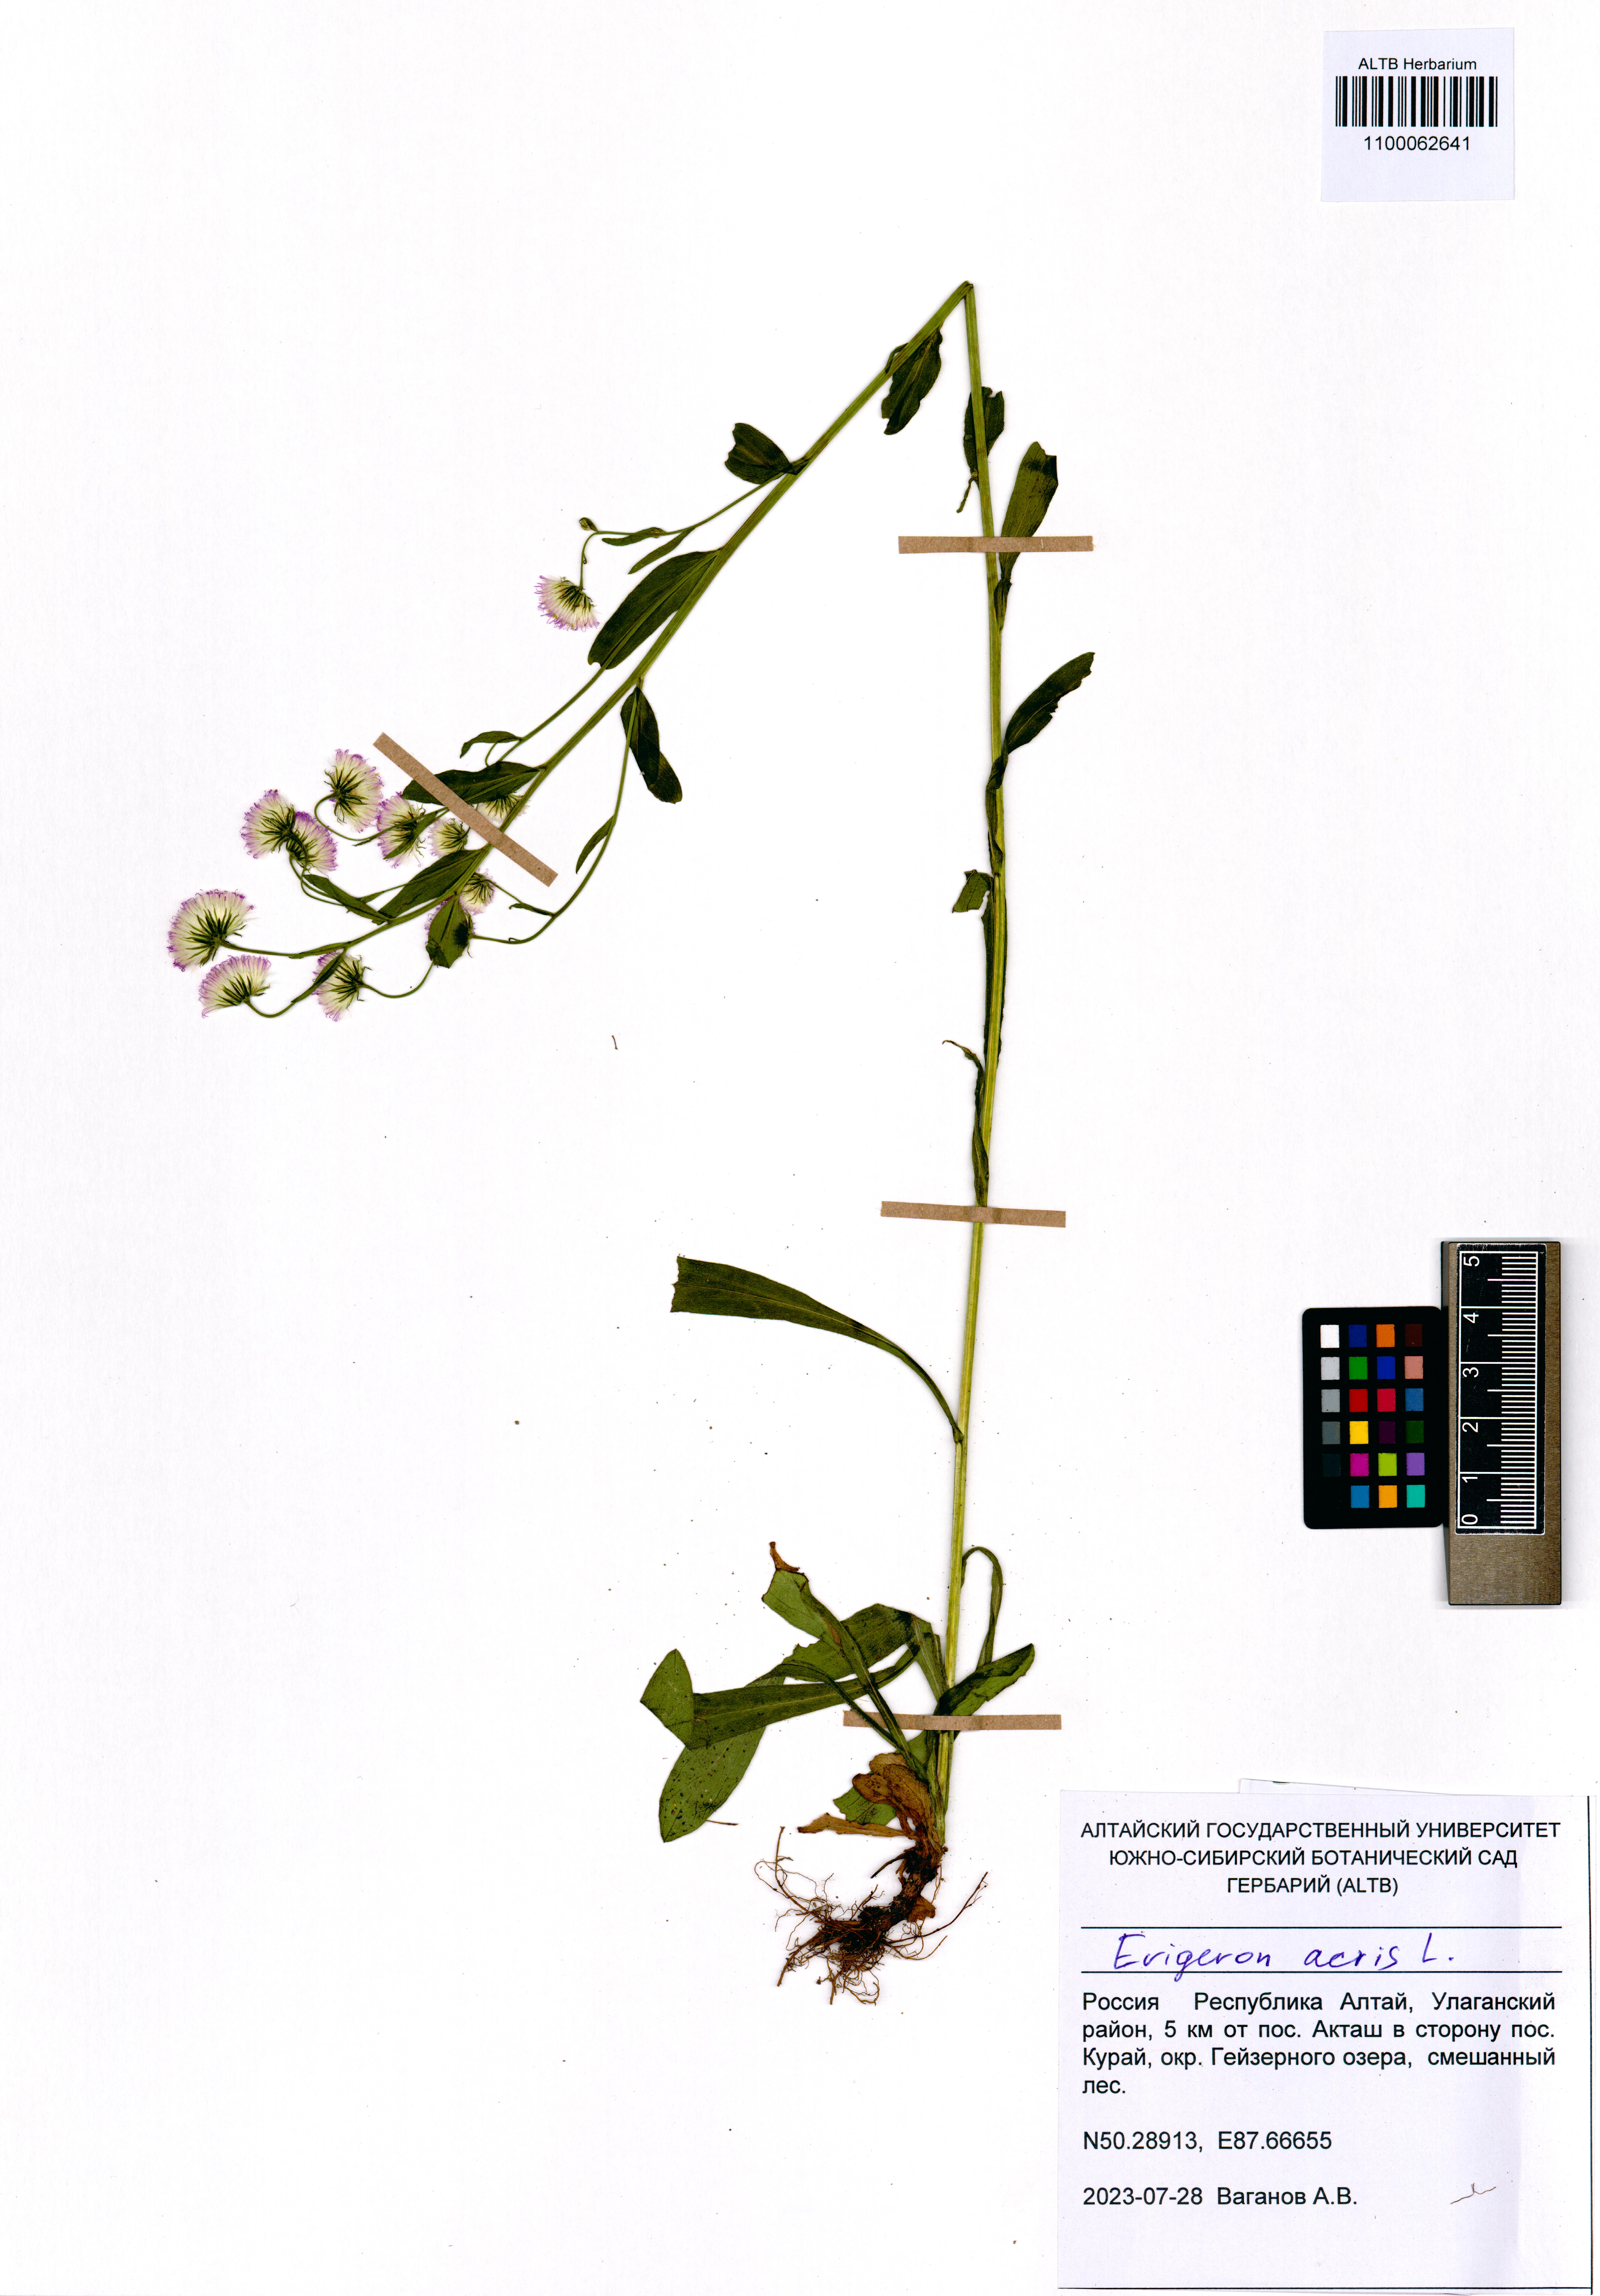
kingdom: Plantae
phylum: Tracheophyta
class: Magnoliopsida
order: Asterales
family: Asteraceae
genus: Erigeron
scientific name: Erigeron acris
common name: Blue fleabane
